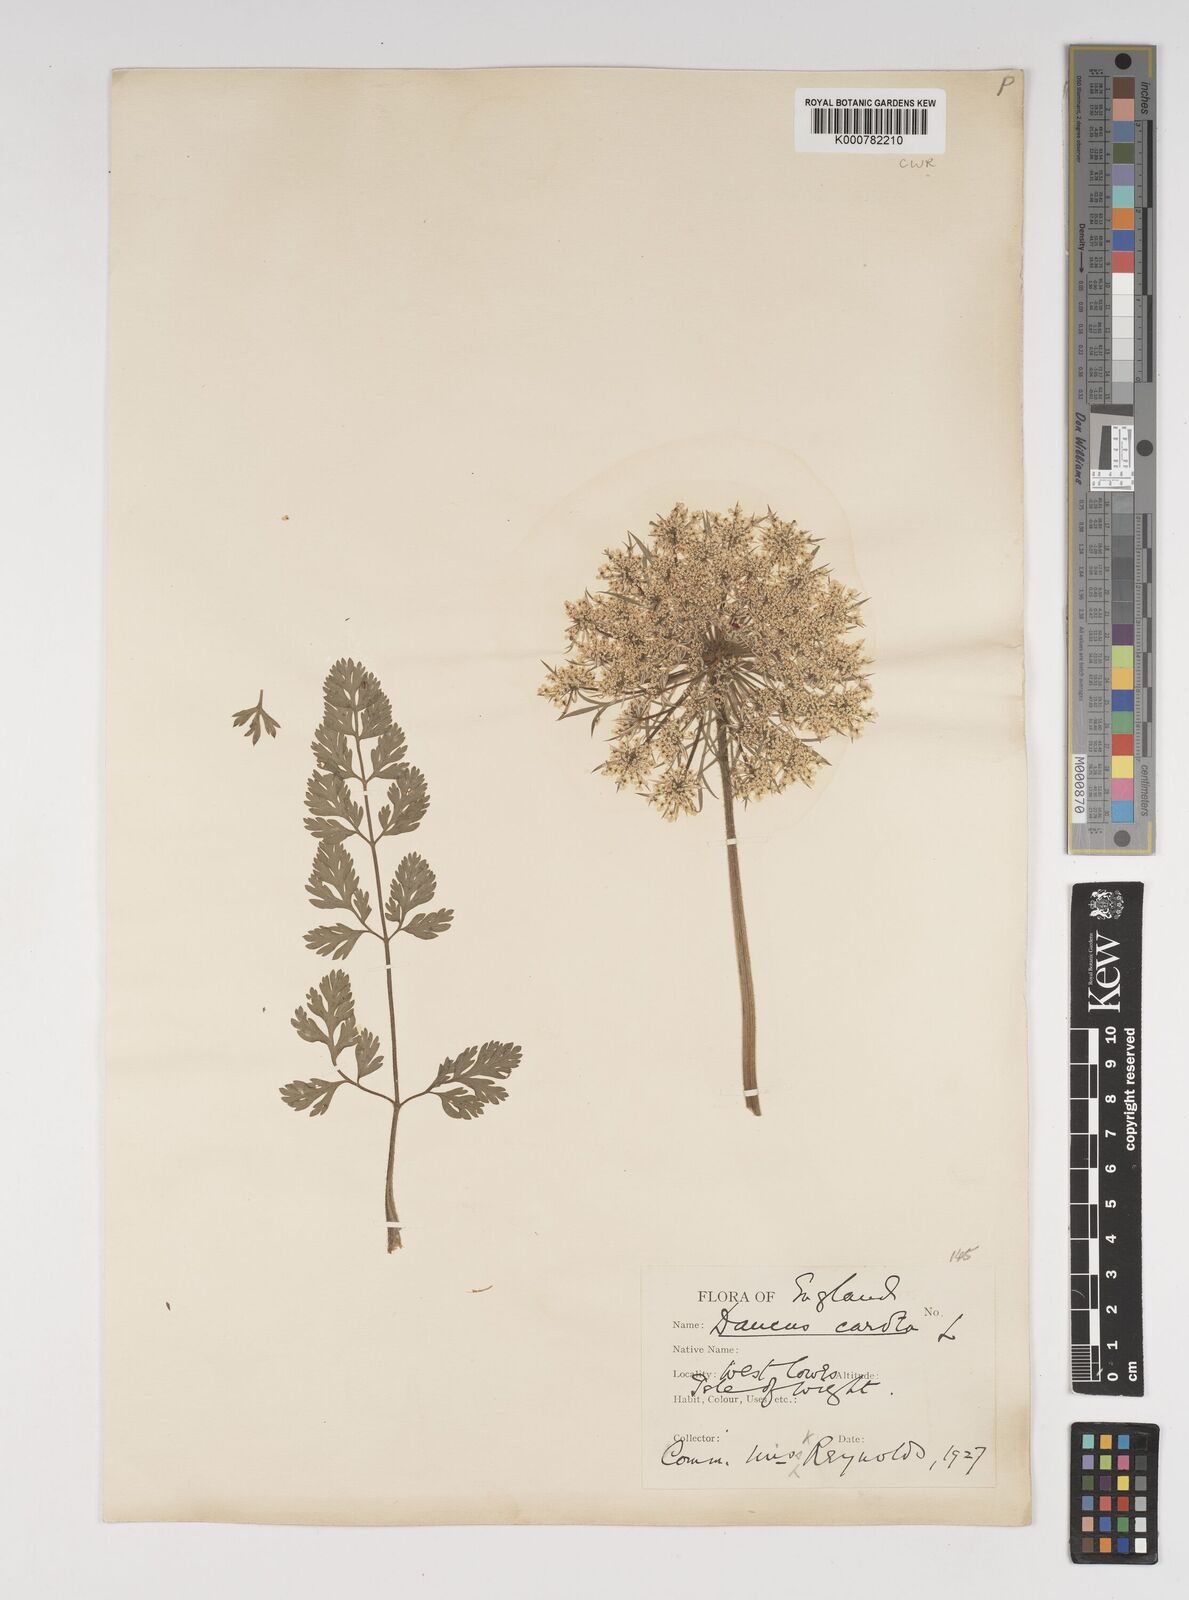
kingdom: Plantae
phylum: Tracheophyta
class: Magnoliopsida
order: Apiales
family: Apiaceae
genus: Daucus
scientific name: Daucus carota
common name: Wild carrot
